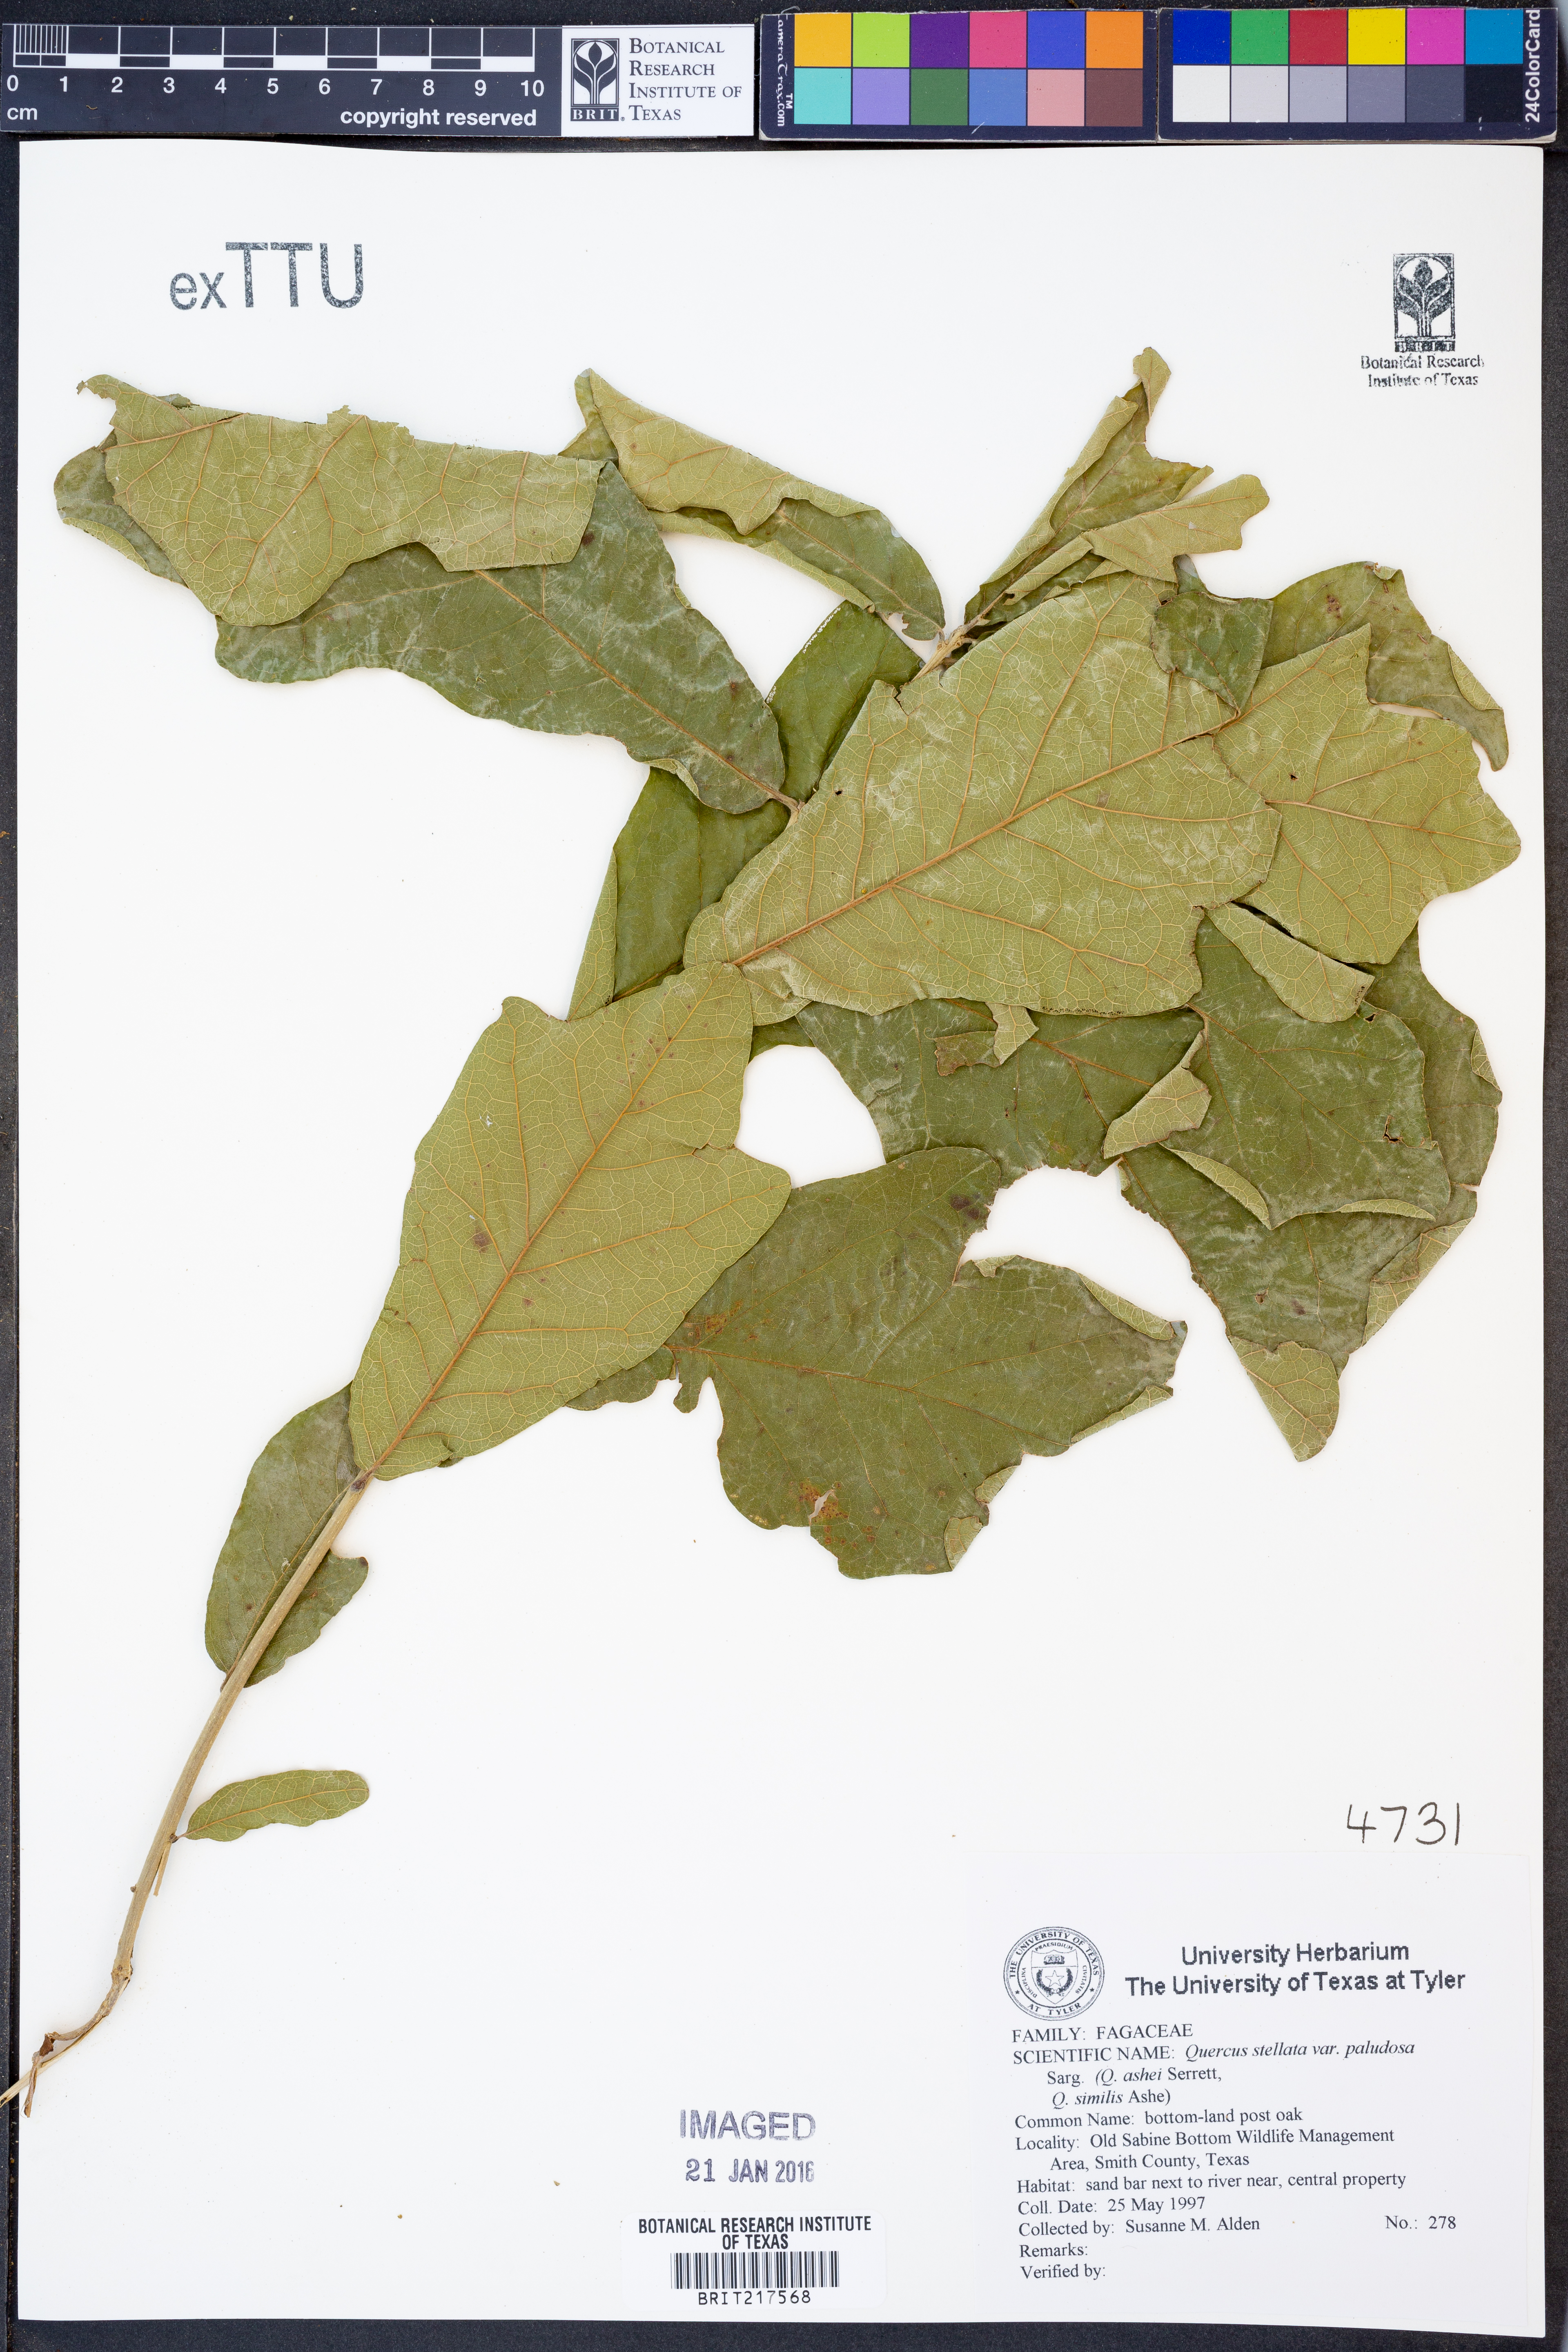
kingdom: Plantae
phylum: Tracheophyta
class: Magnoliopsida
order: Fagales
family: Fagaceae
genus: Quercus
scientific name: Quercus similis
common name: Delta post oak
